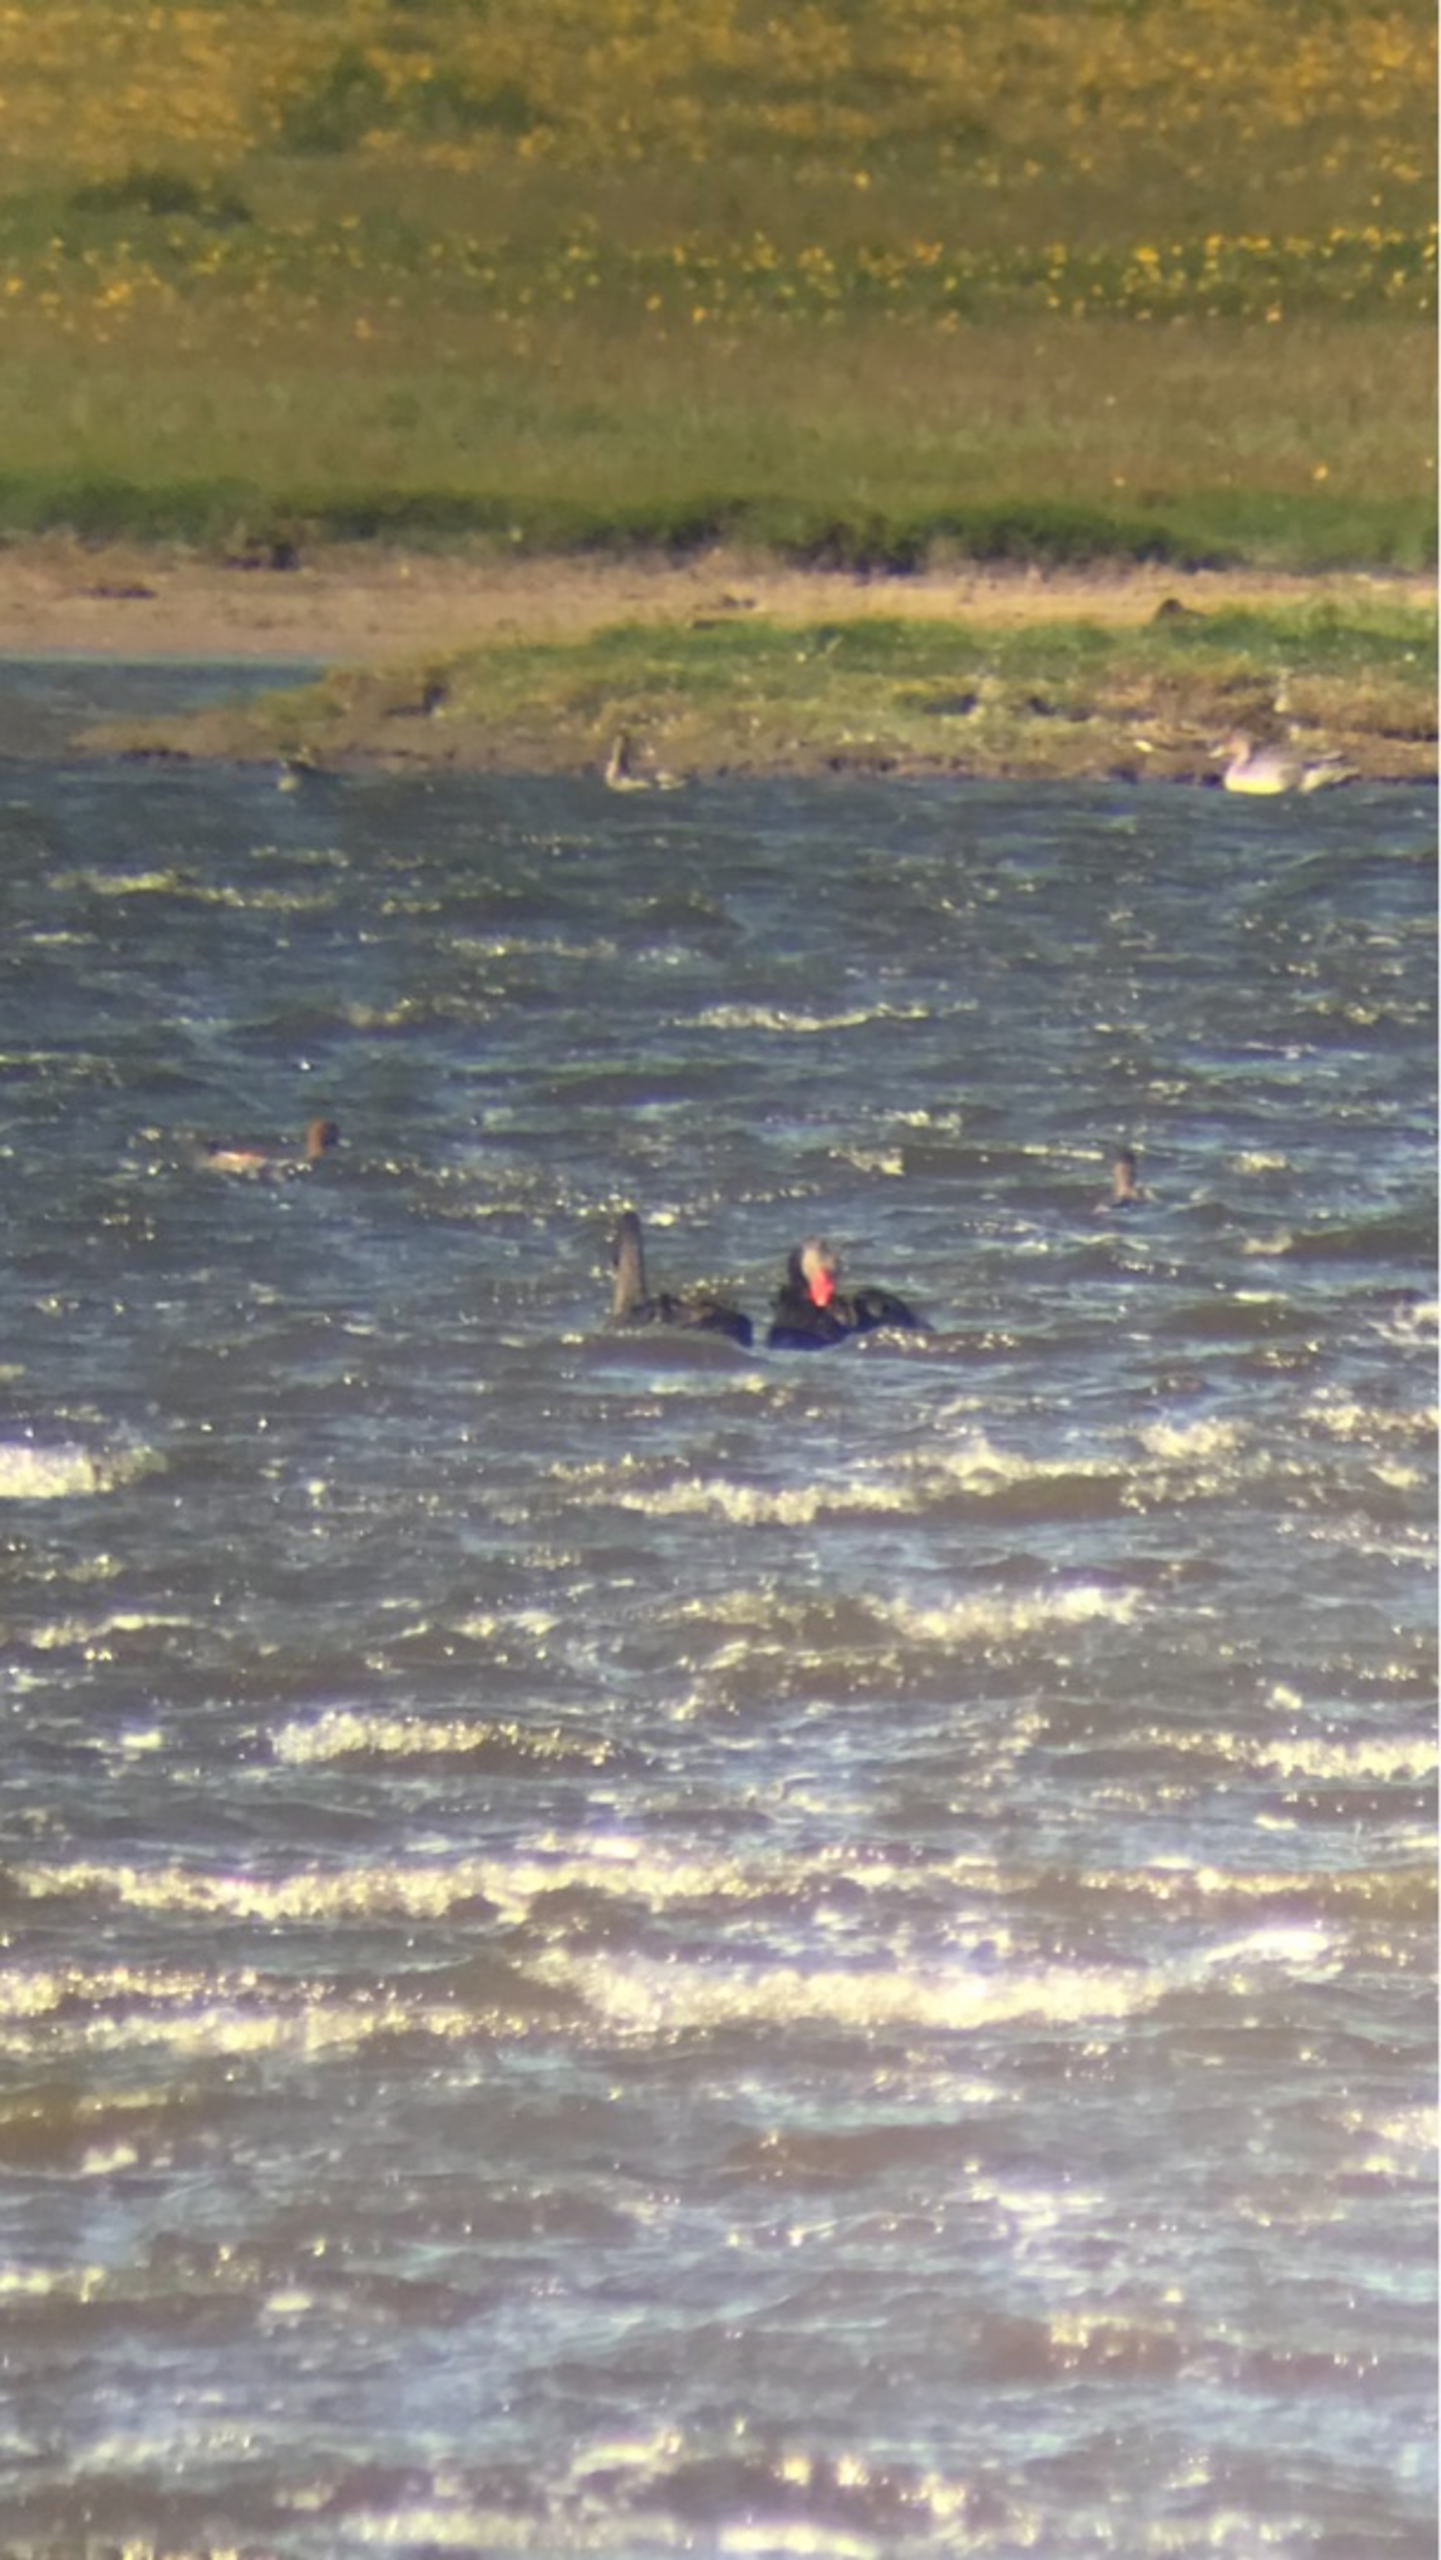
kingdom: Animalia
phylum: Chordata
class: Aves
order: Anseriformes
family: Anatidae
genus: Cygnus
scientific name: Cygnus atratus
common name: Sortsvane
